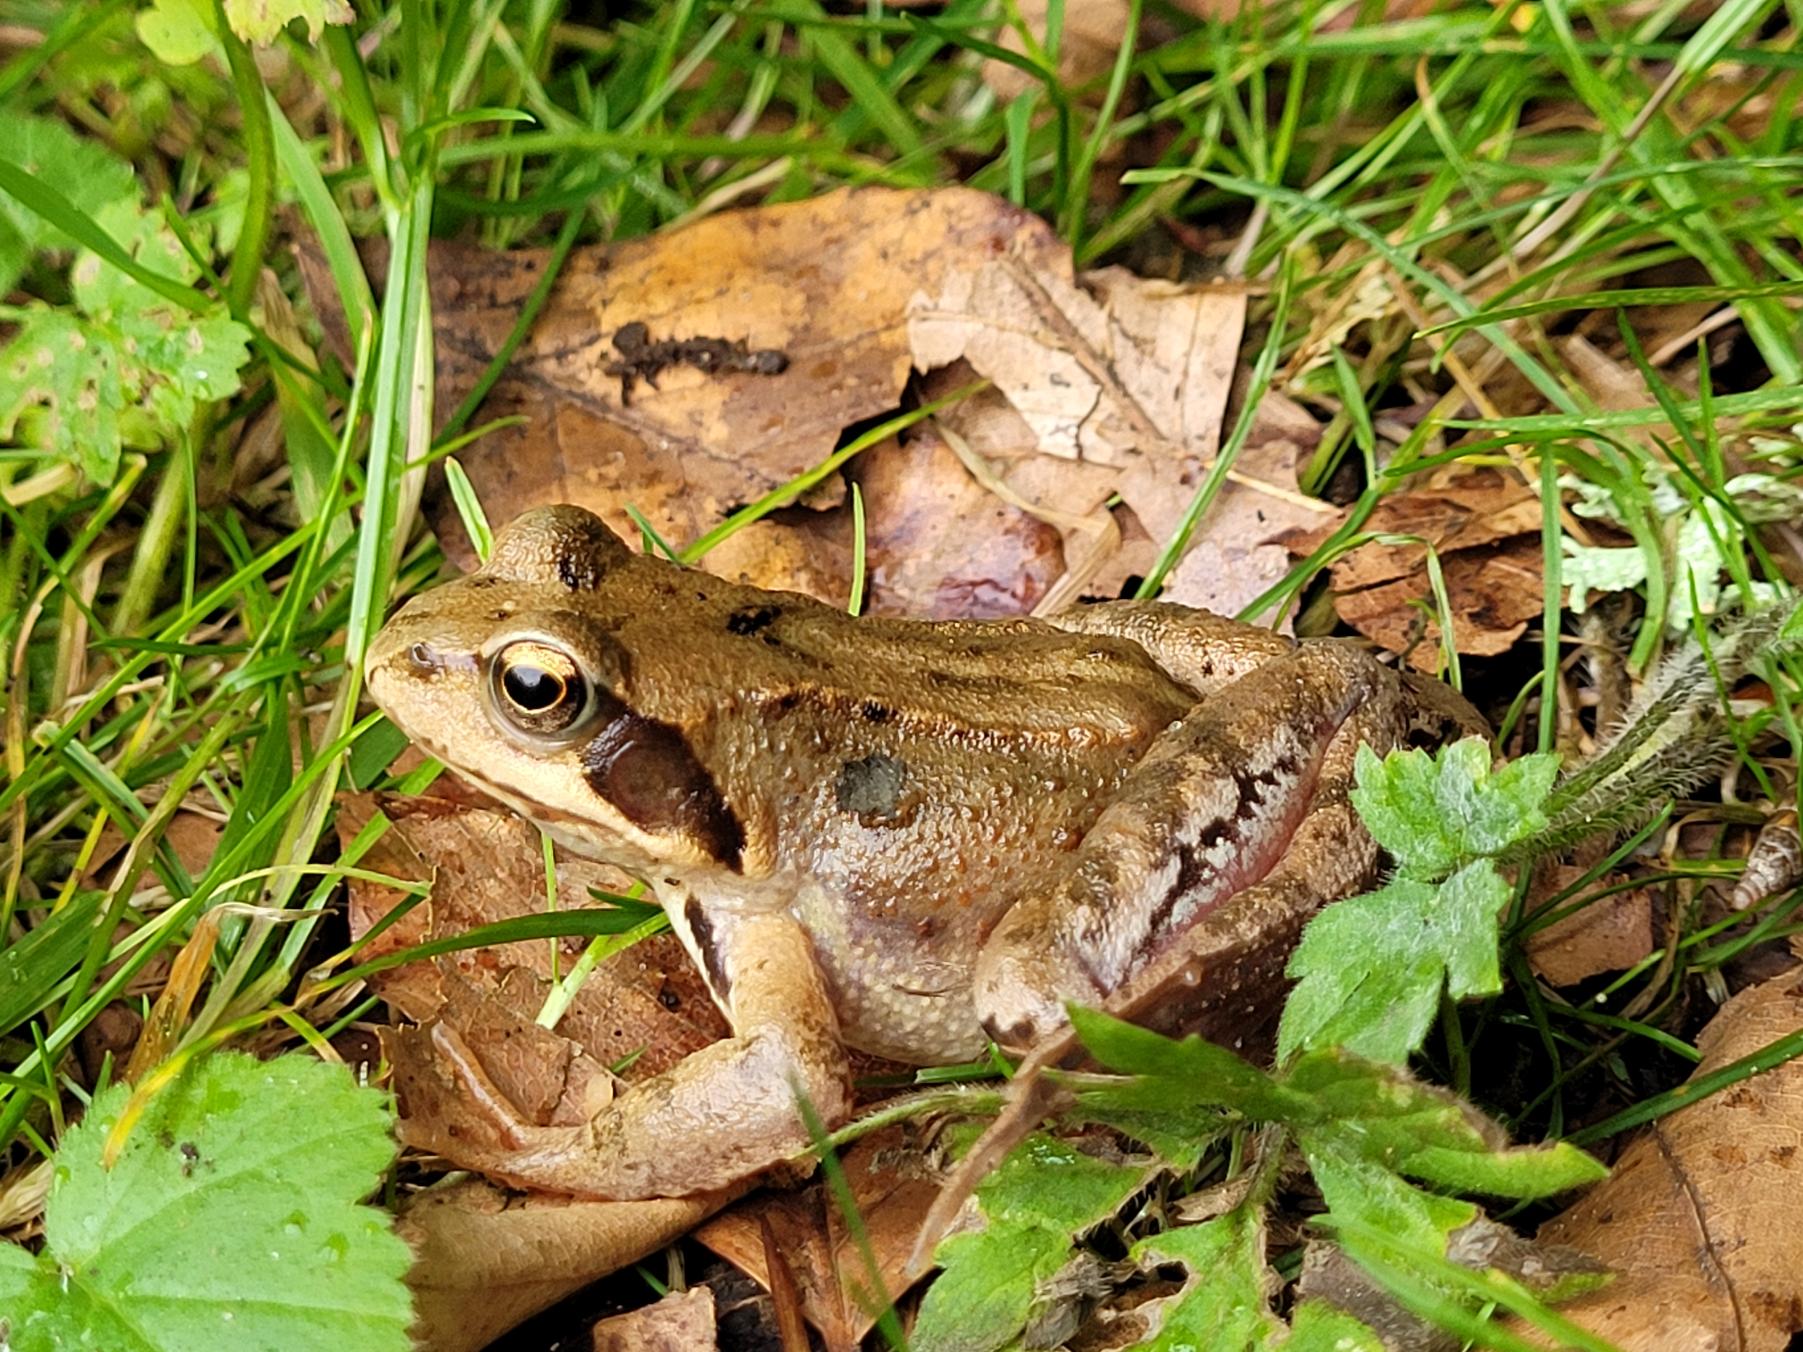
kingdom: Animalia
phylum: Chordata
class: Amphibia
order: Anura
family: Ranidae
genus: Rana
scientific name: Rana temporaria
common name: Butsnudet frø
